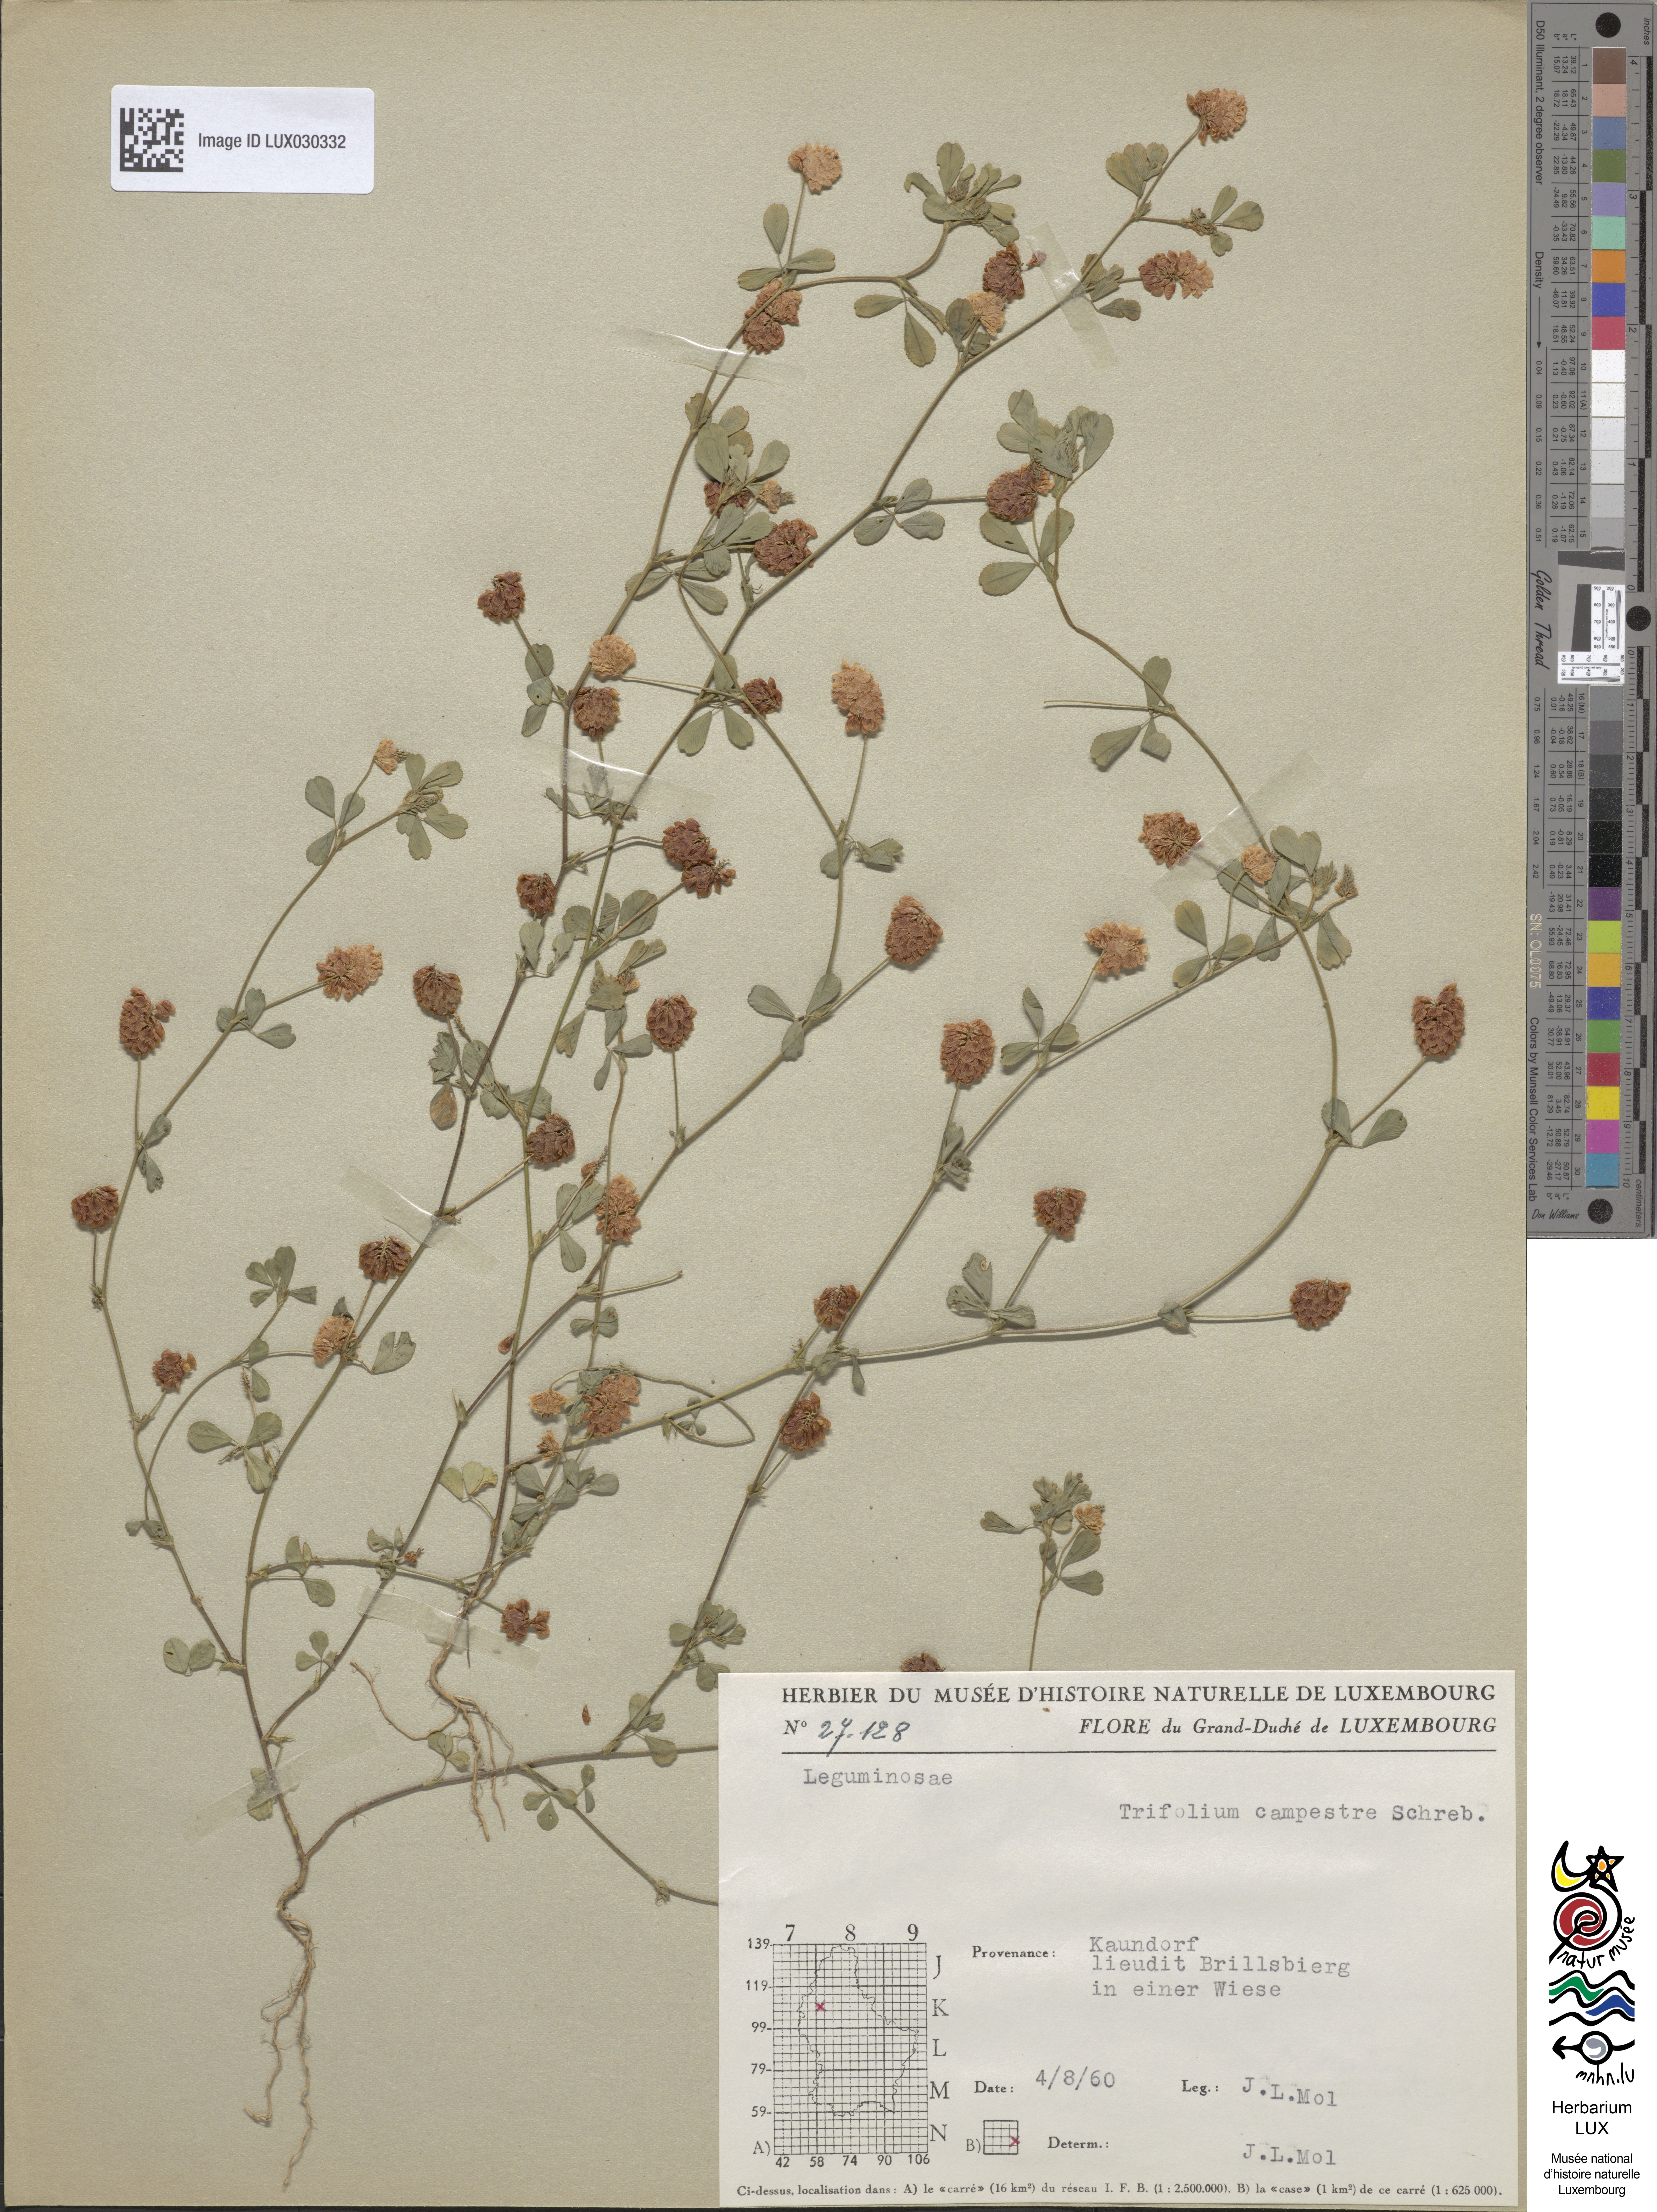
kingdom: Plantae
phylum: Tracheophyta
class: Magnoliopsida
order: Fabales
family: Fabaceae
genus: Trifolium
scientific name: Trifolium campestre
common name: Field clover
